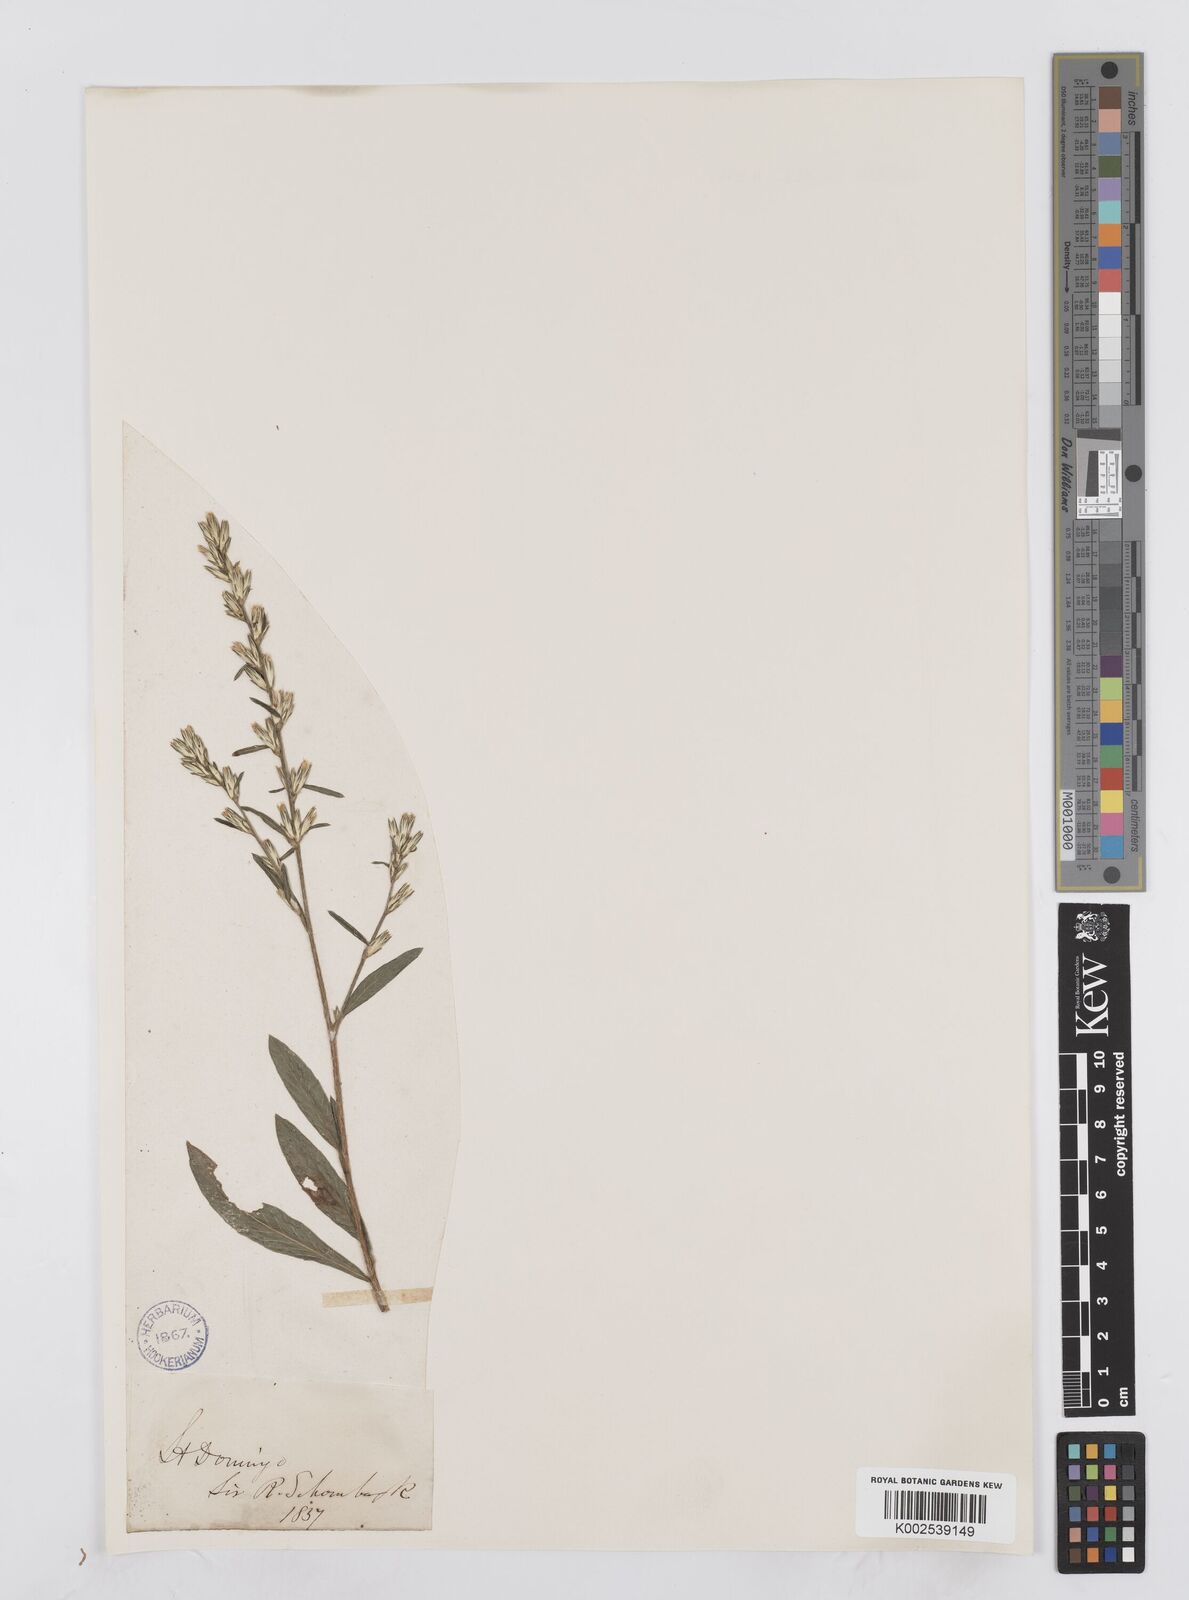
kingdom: Plantae
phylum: Tracheophyta
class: Magnoliopsida
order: Asterales
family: Asteraceae
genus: Pseudelephantopus
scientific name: Pseudelephantopus spicatus
